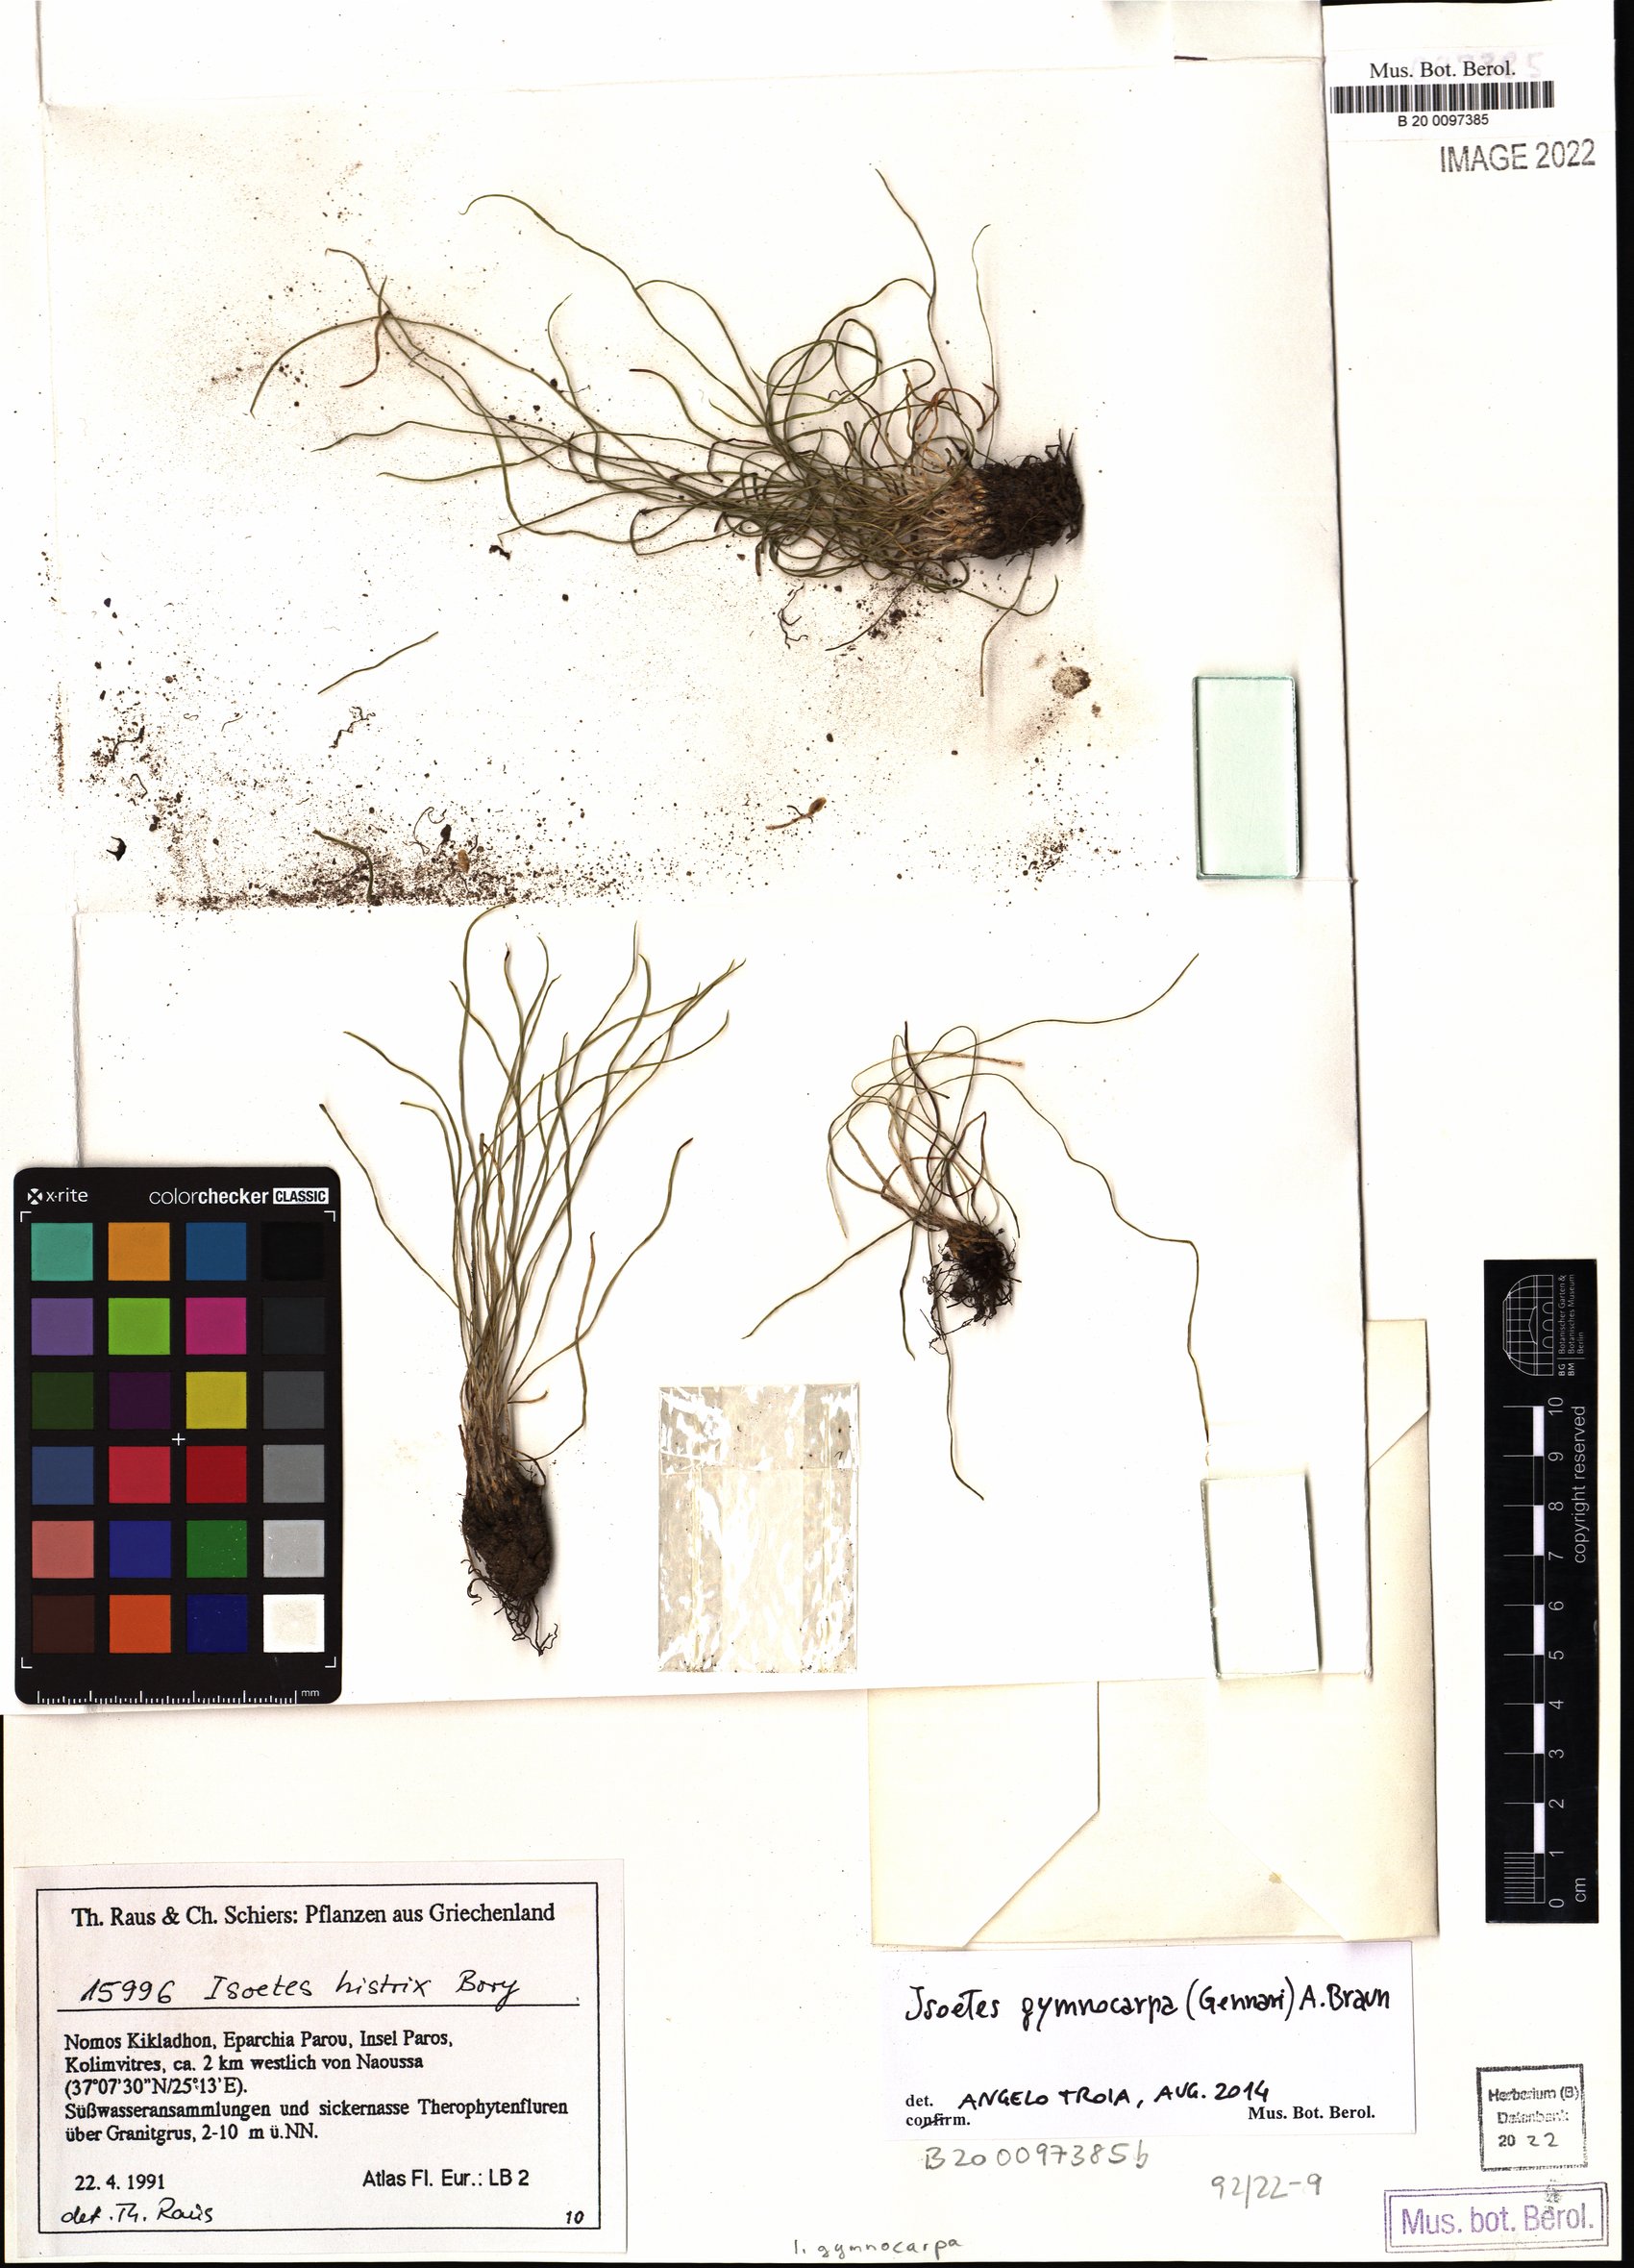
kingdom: Plantae
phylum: Tracheophyta
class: Lycopodiopsida
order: Isoetales
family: Isoetaceae
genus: Isoetes
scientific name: Isoetes gymnocarpa
